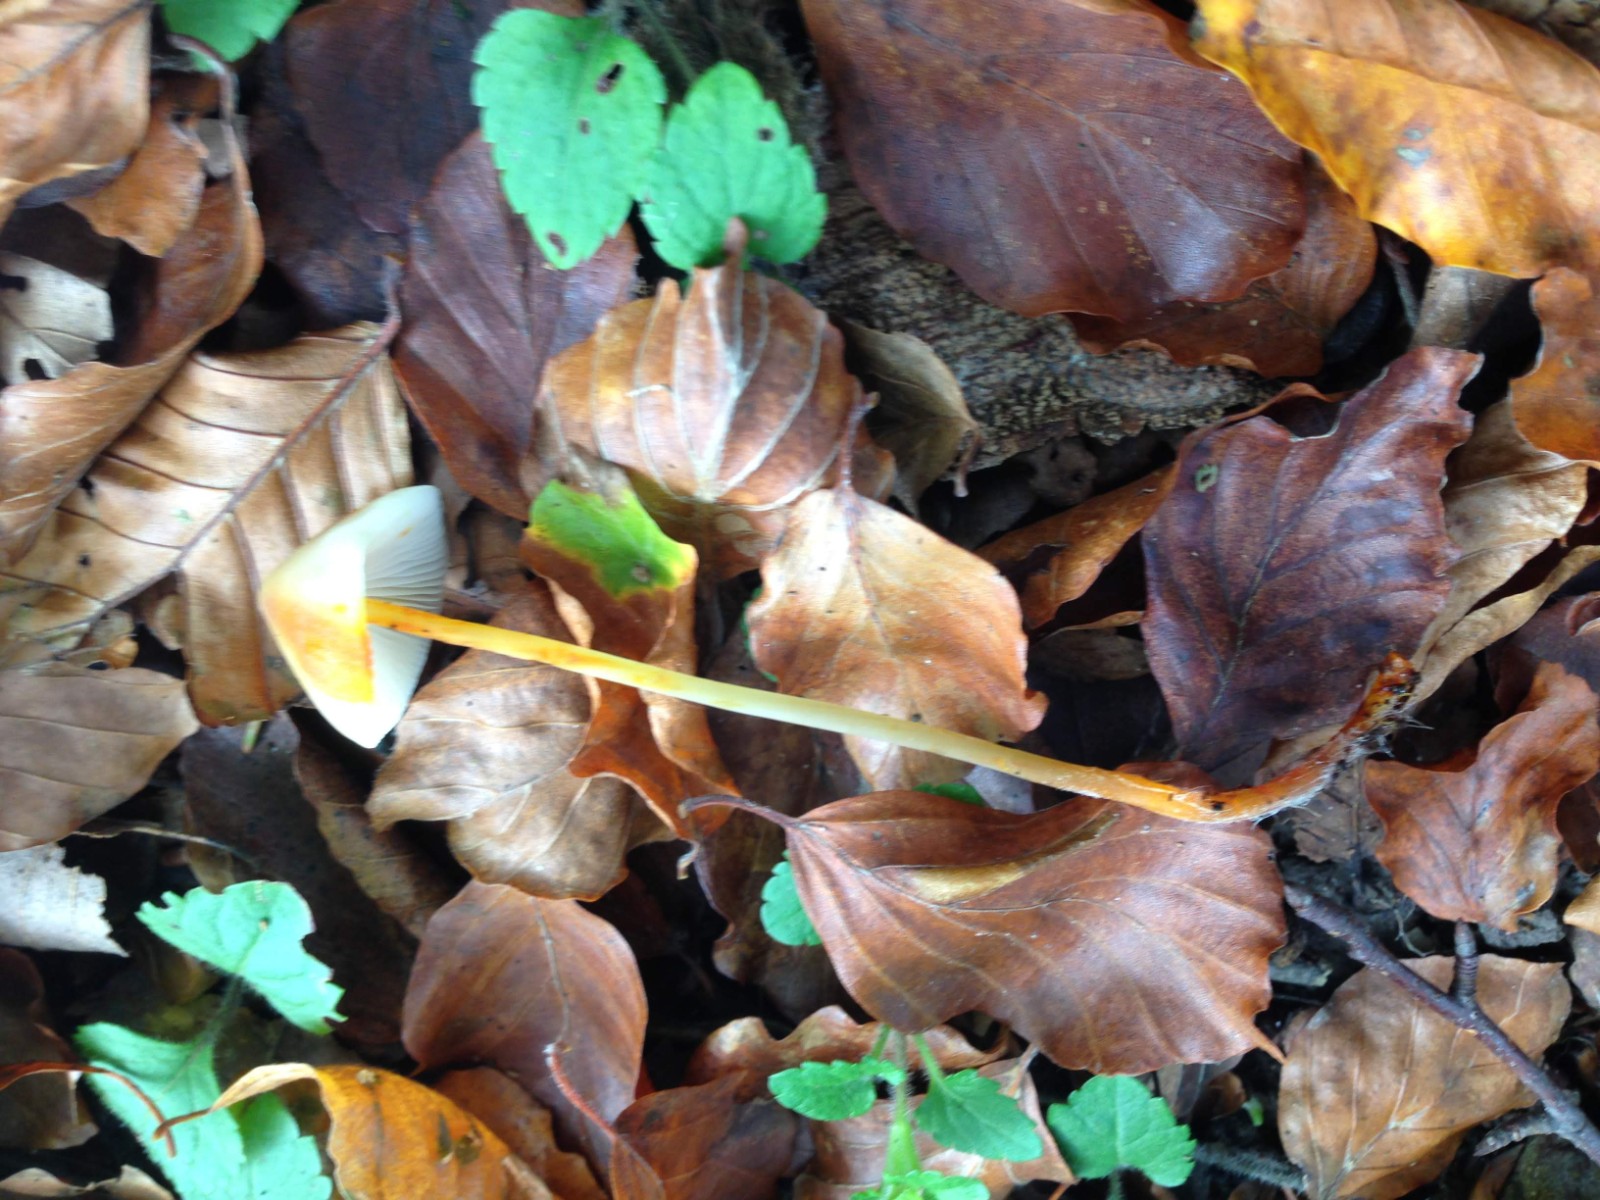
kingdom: Fungi
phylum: Basidiomycota
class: Agaricomycetes
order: Agaricales
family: Mycenaceae
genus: Mycena
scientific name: Mycena crocata
